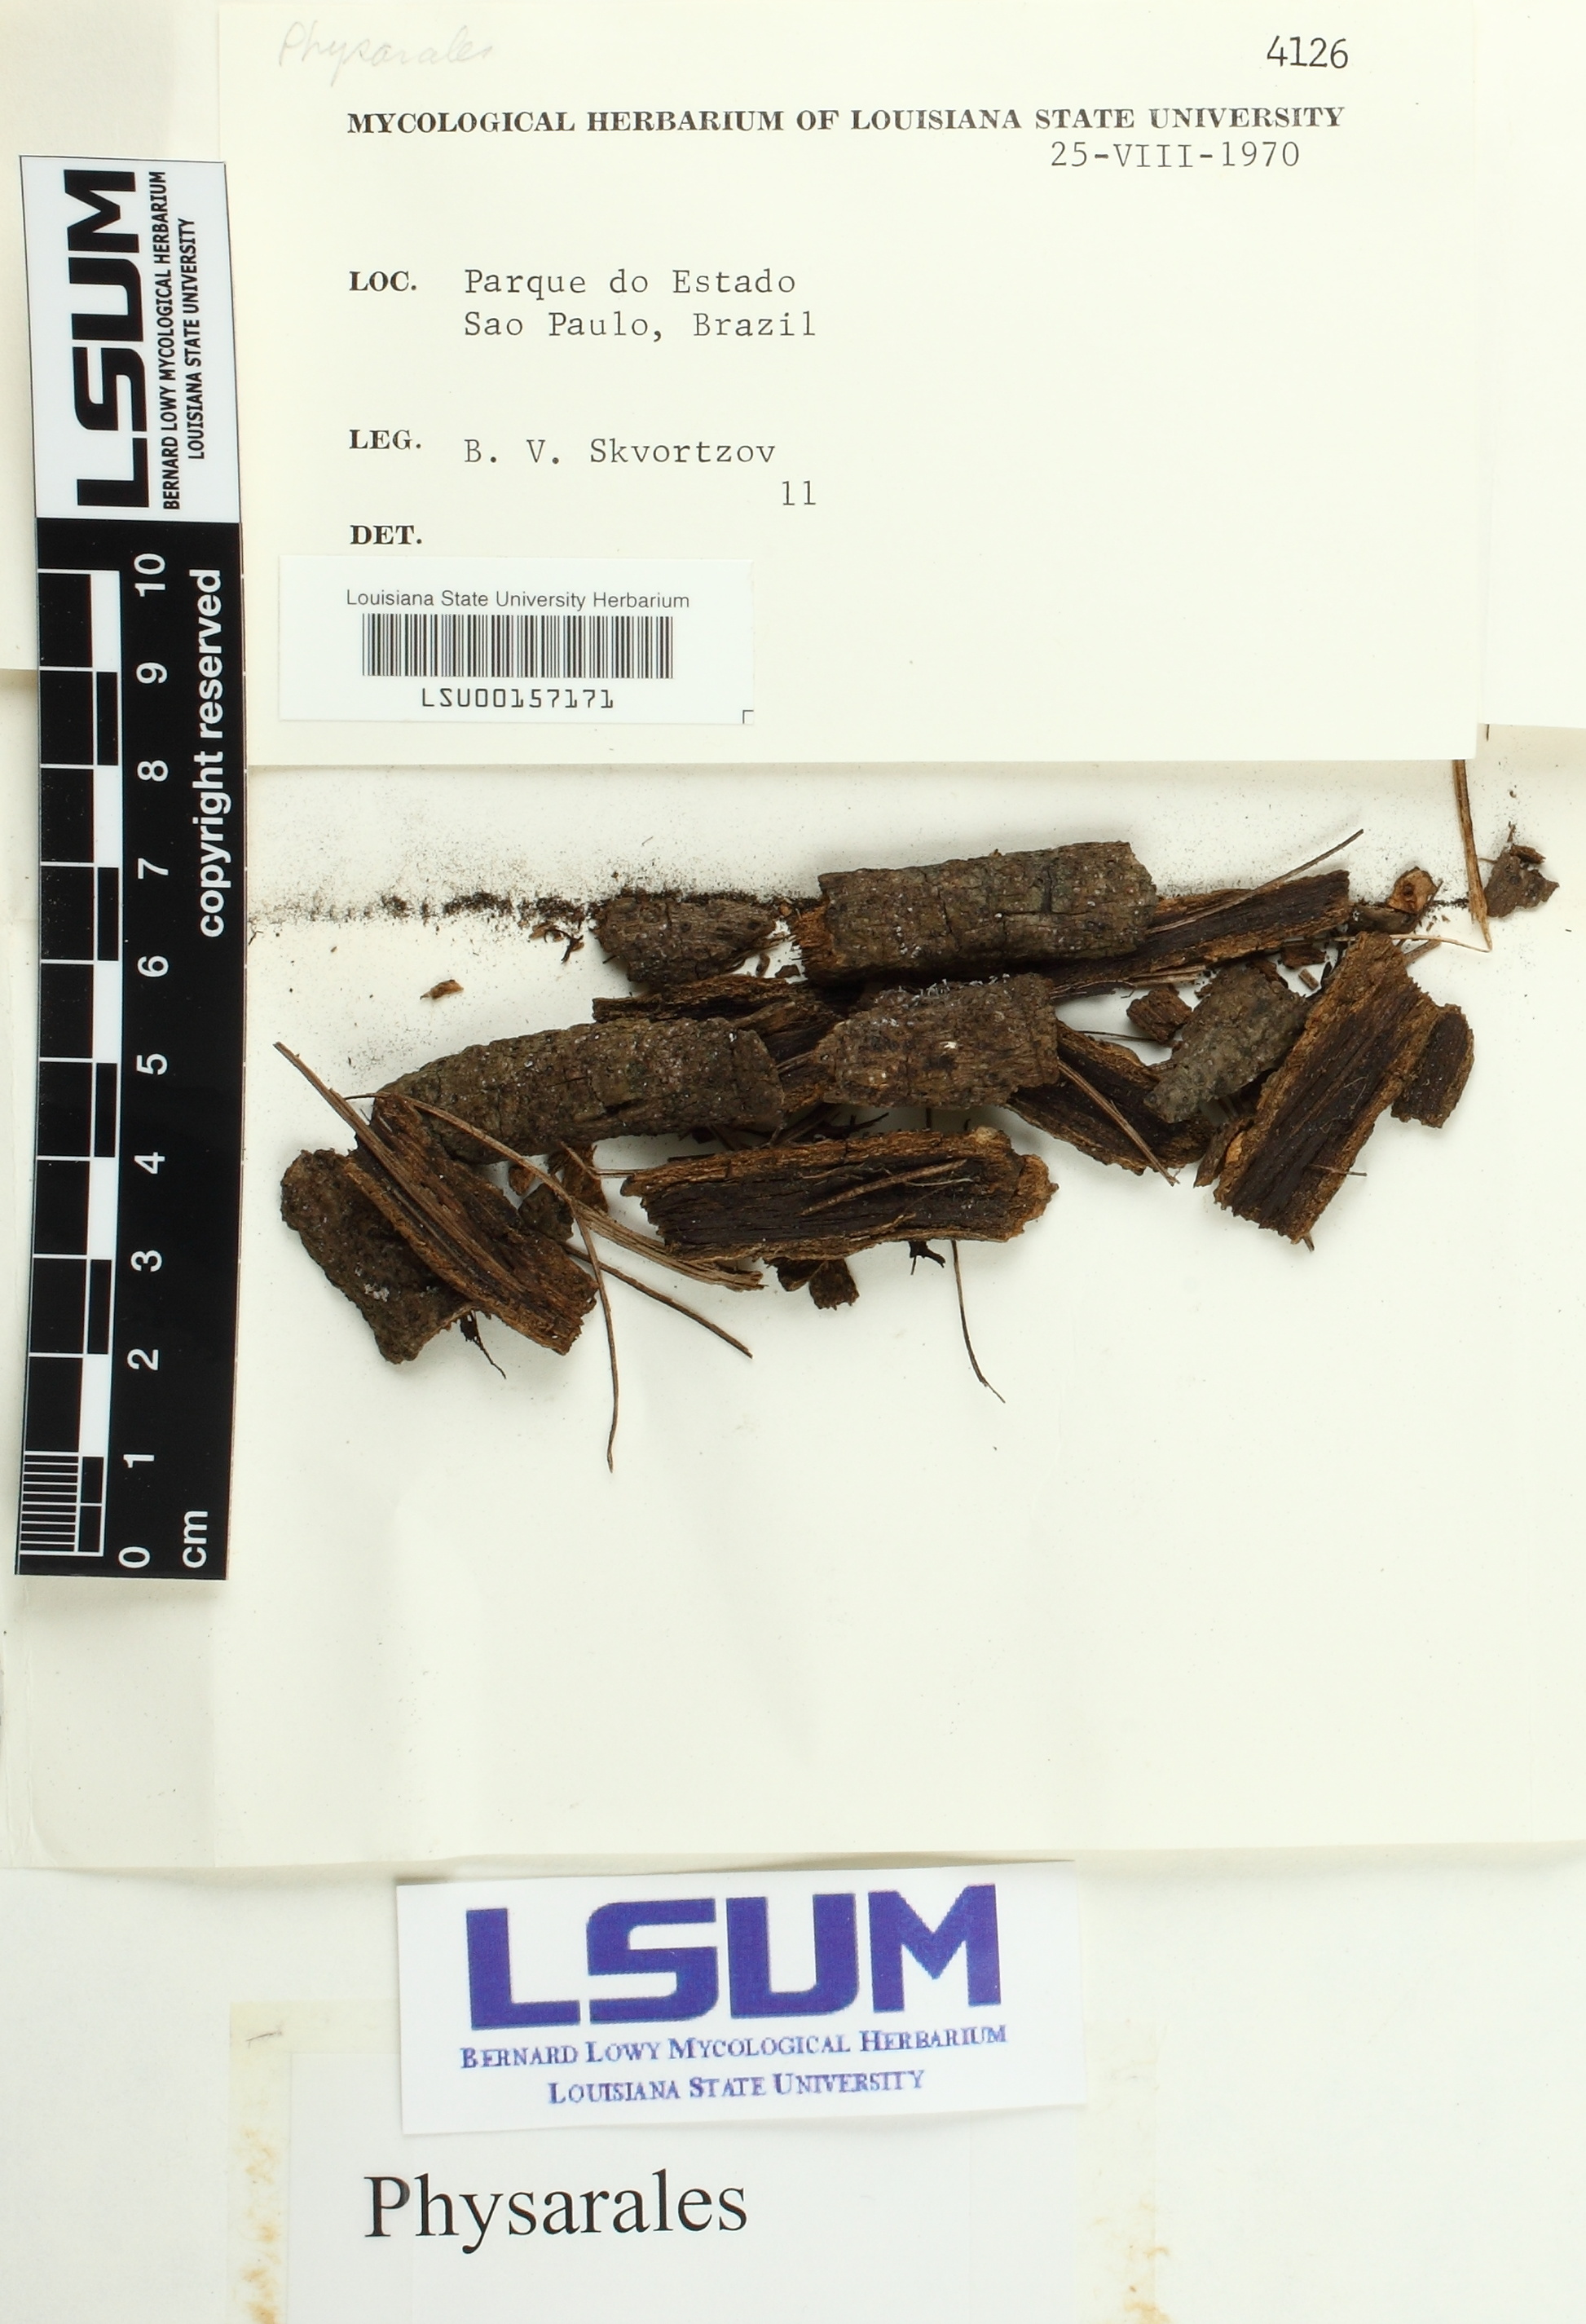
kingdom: Fungi
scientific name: Fungi
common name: Fungi
